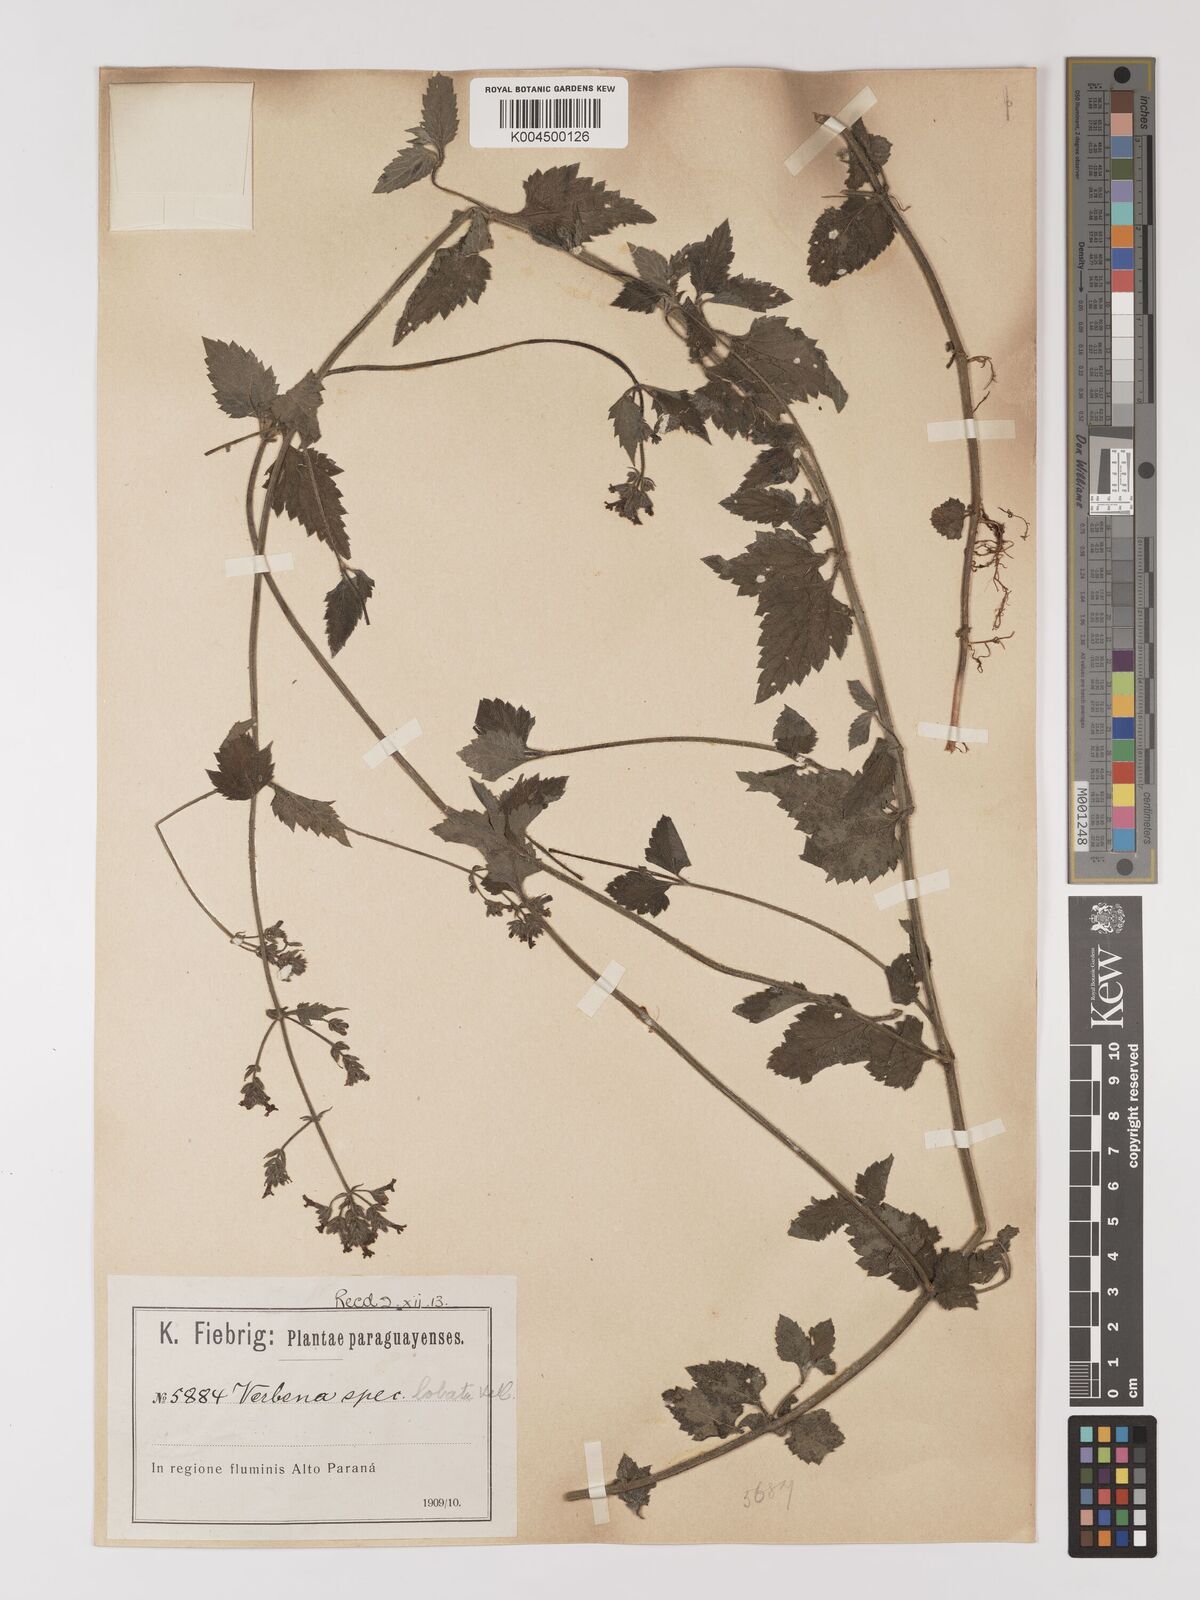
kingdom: Plantae
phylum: Tracheophyta
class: Magnoliopsida
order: Lamiales
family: Verbenaceae
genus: Verbena
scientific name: Verbena lobata
